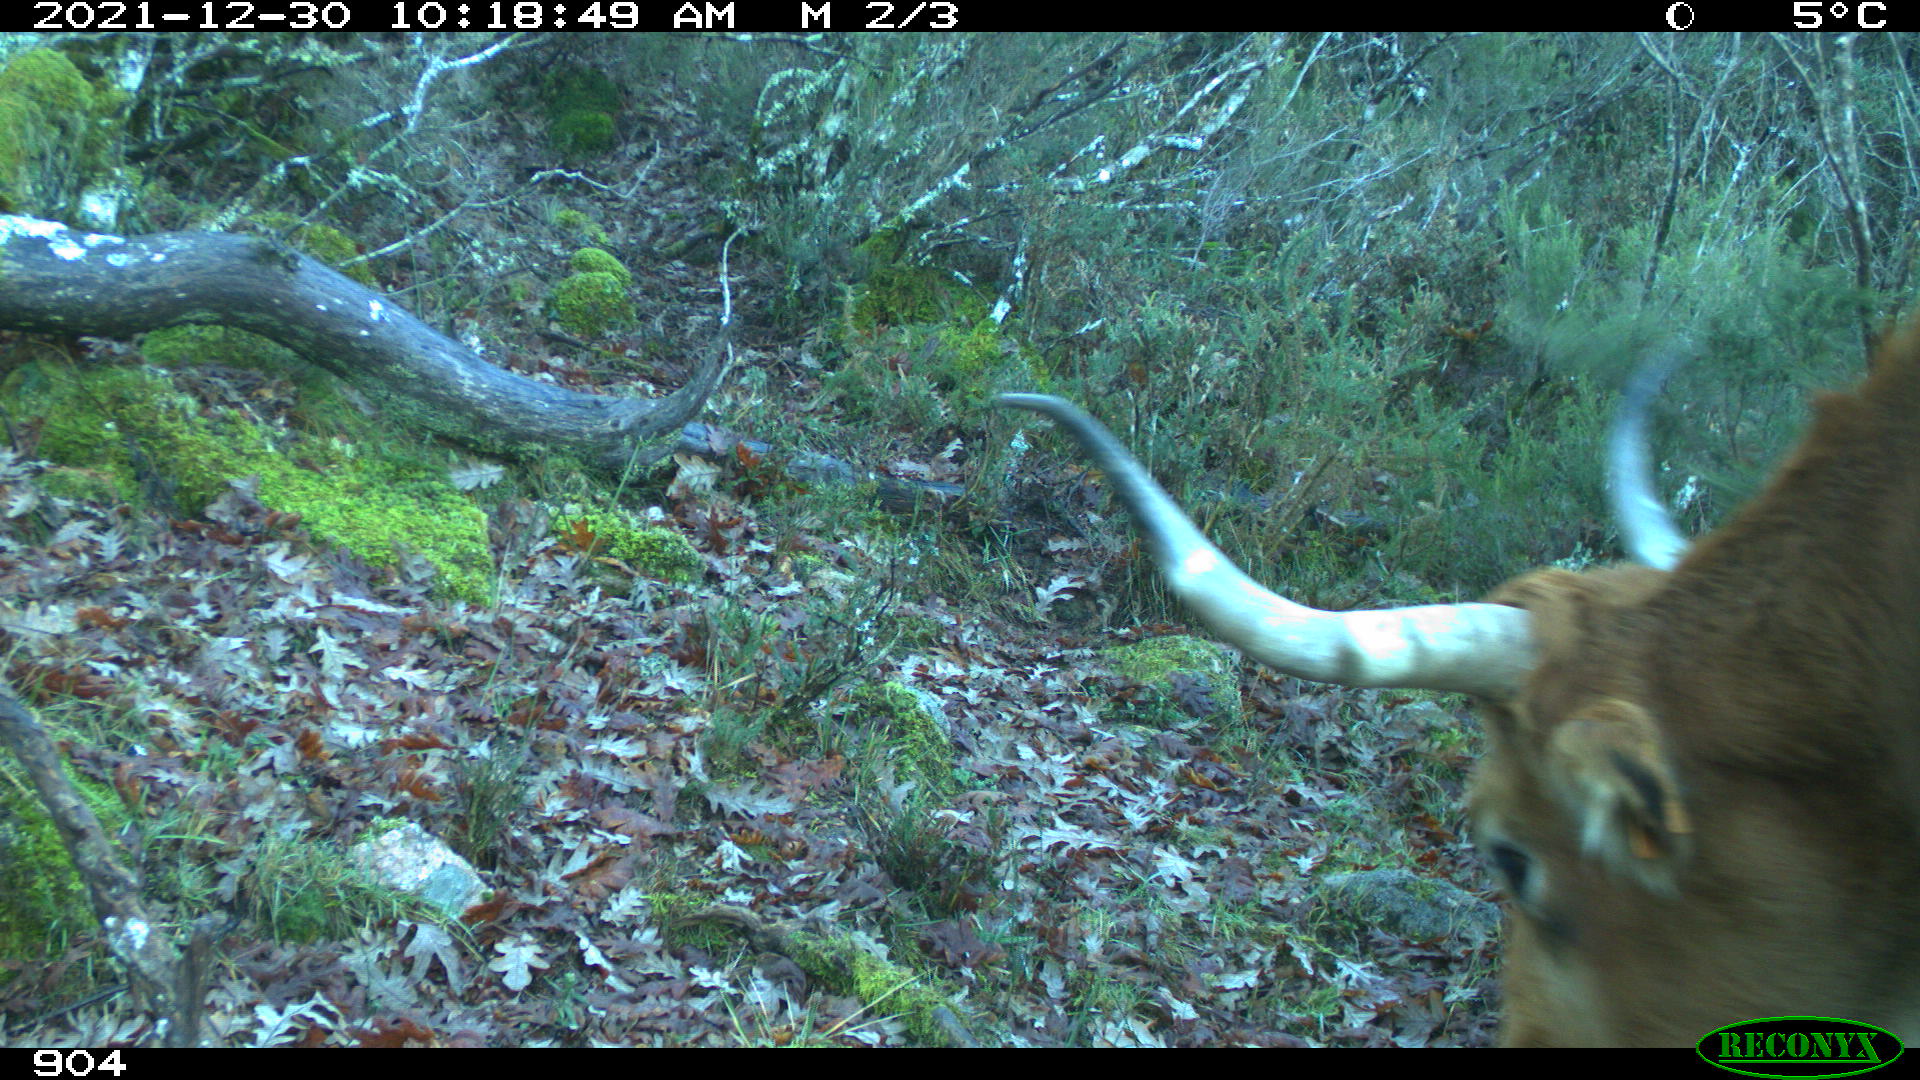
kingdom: Animalia
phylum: Chordata
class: Mammalia
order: Artiodactyla
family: Bovidae
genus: Bos
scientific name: Bos taurus
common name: Domesticated cattle
